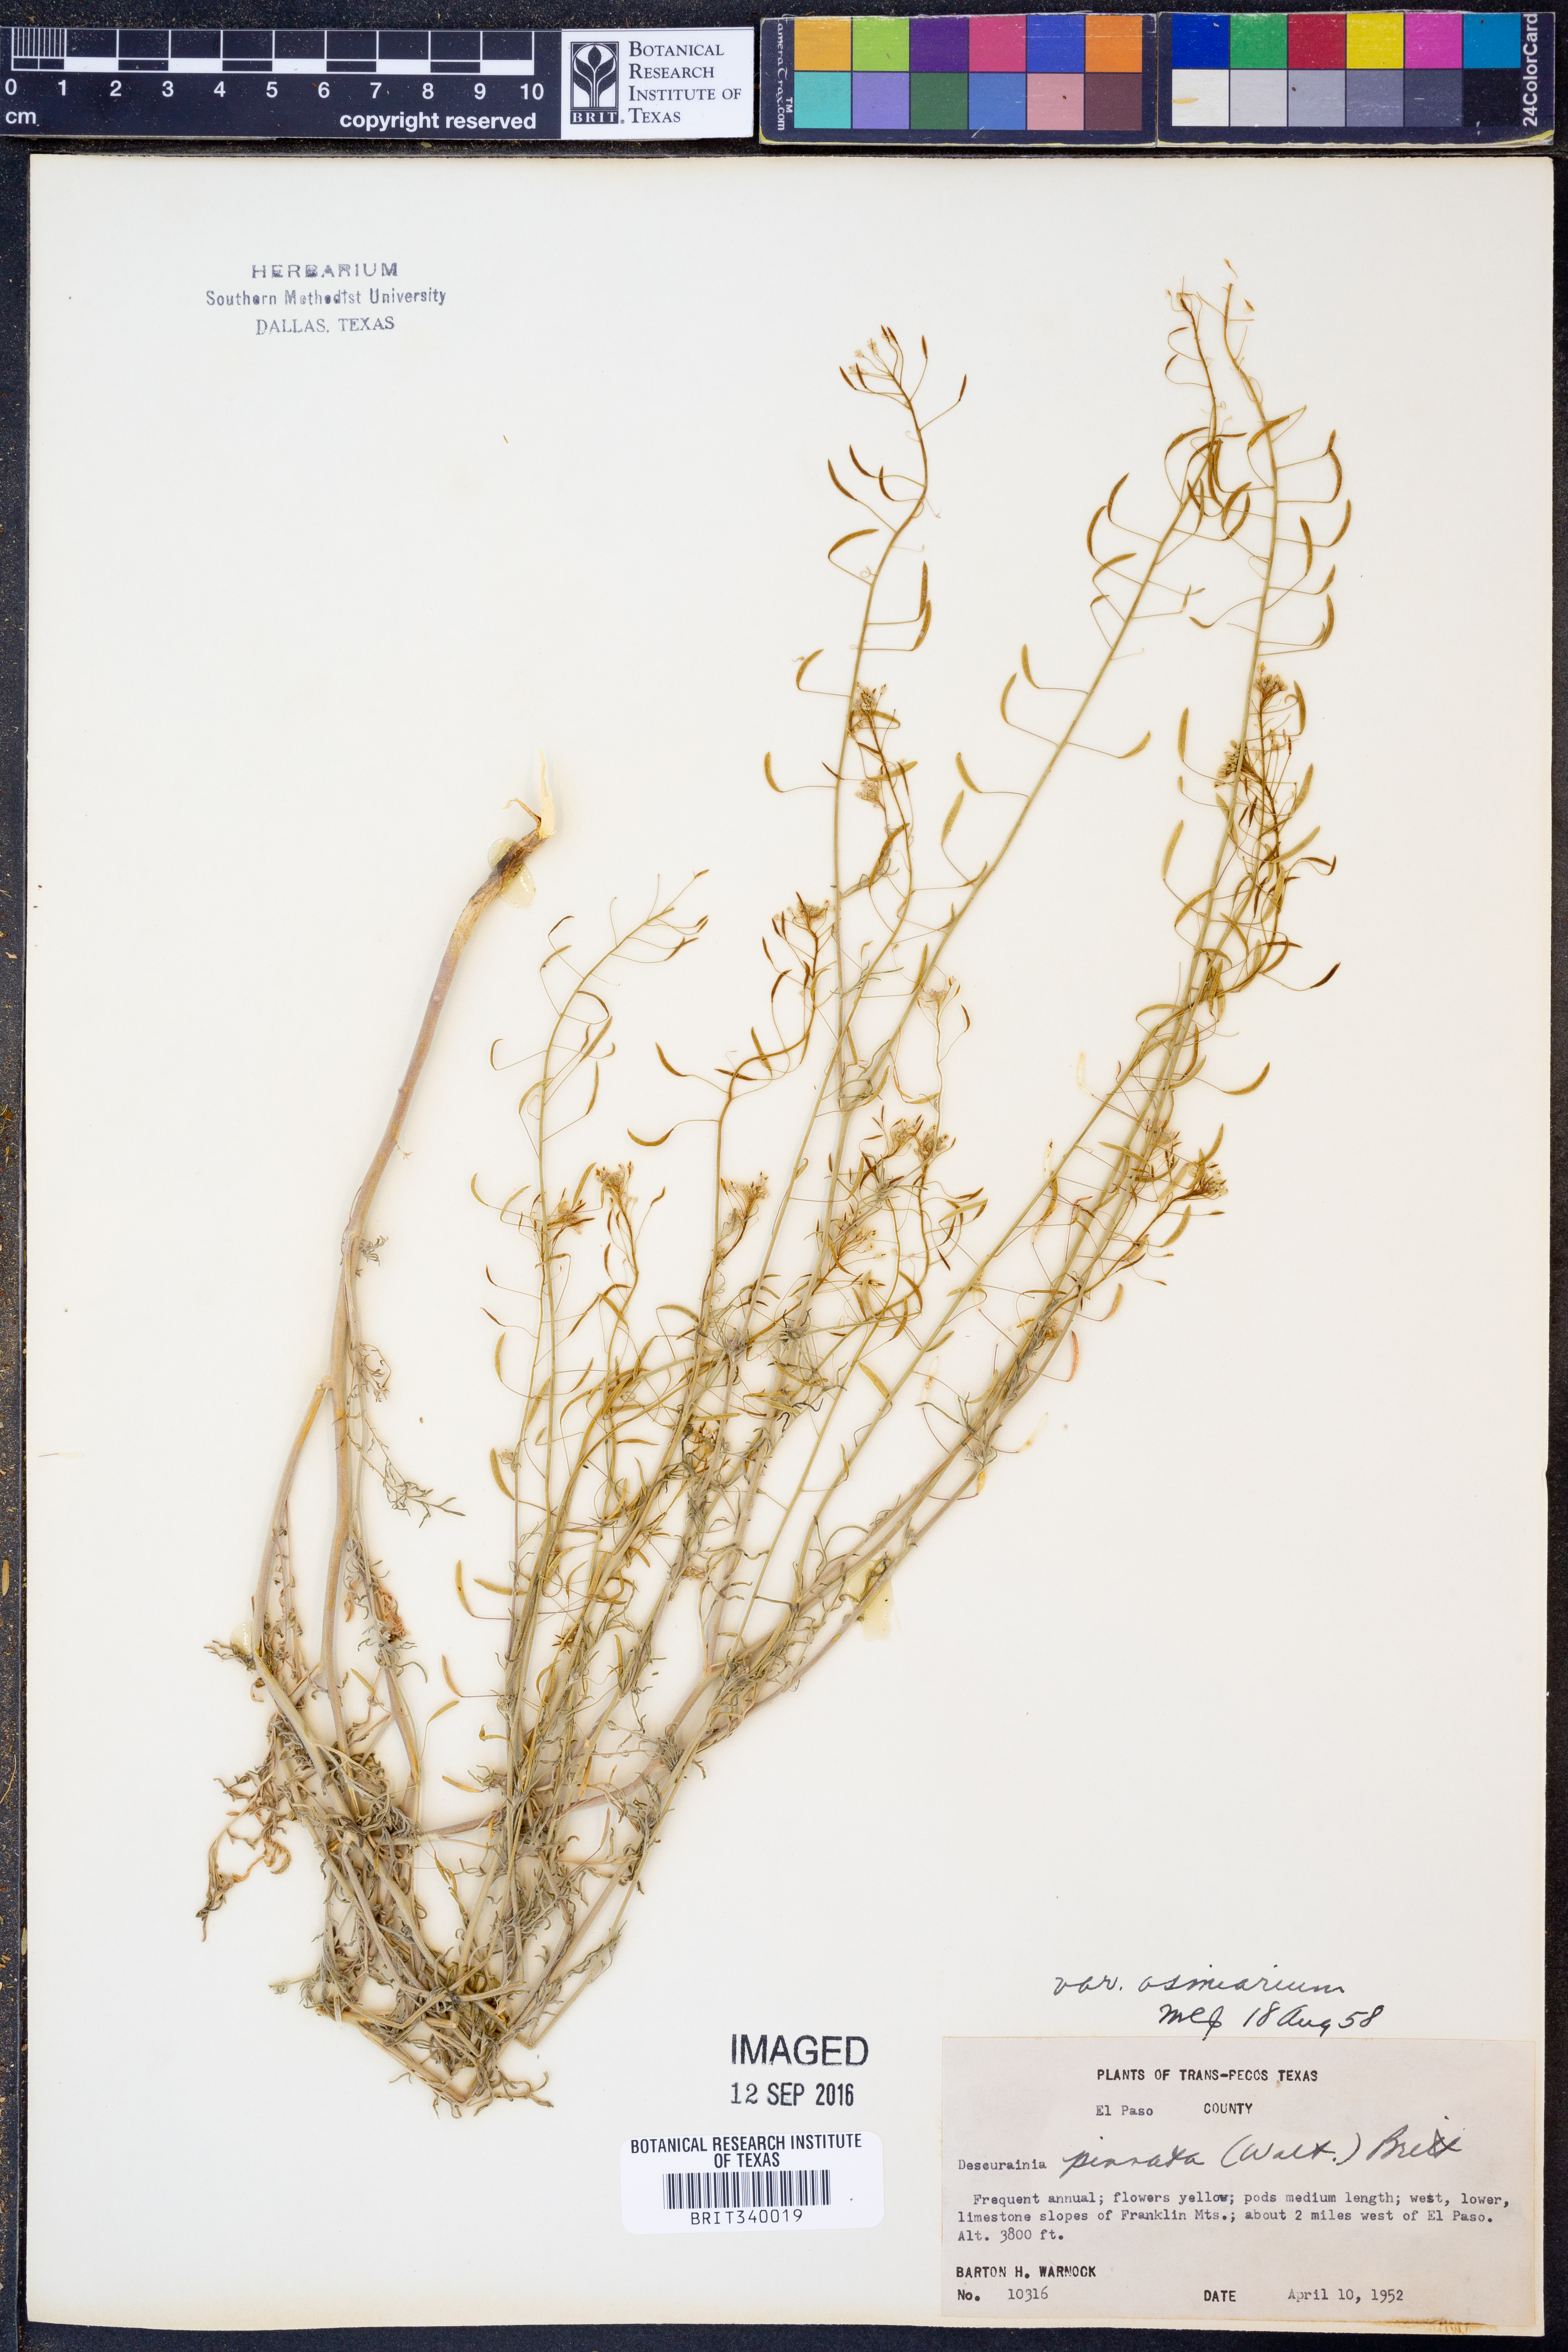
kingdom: Plantae
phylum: Tracheophyta
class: Magnoliopsida
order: Brassicales
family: Brassicaceae
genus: Descurainia
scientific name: Descurainia pinnata
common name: Western tansy mustard
